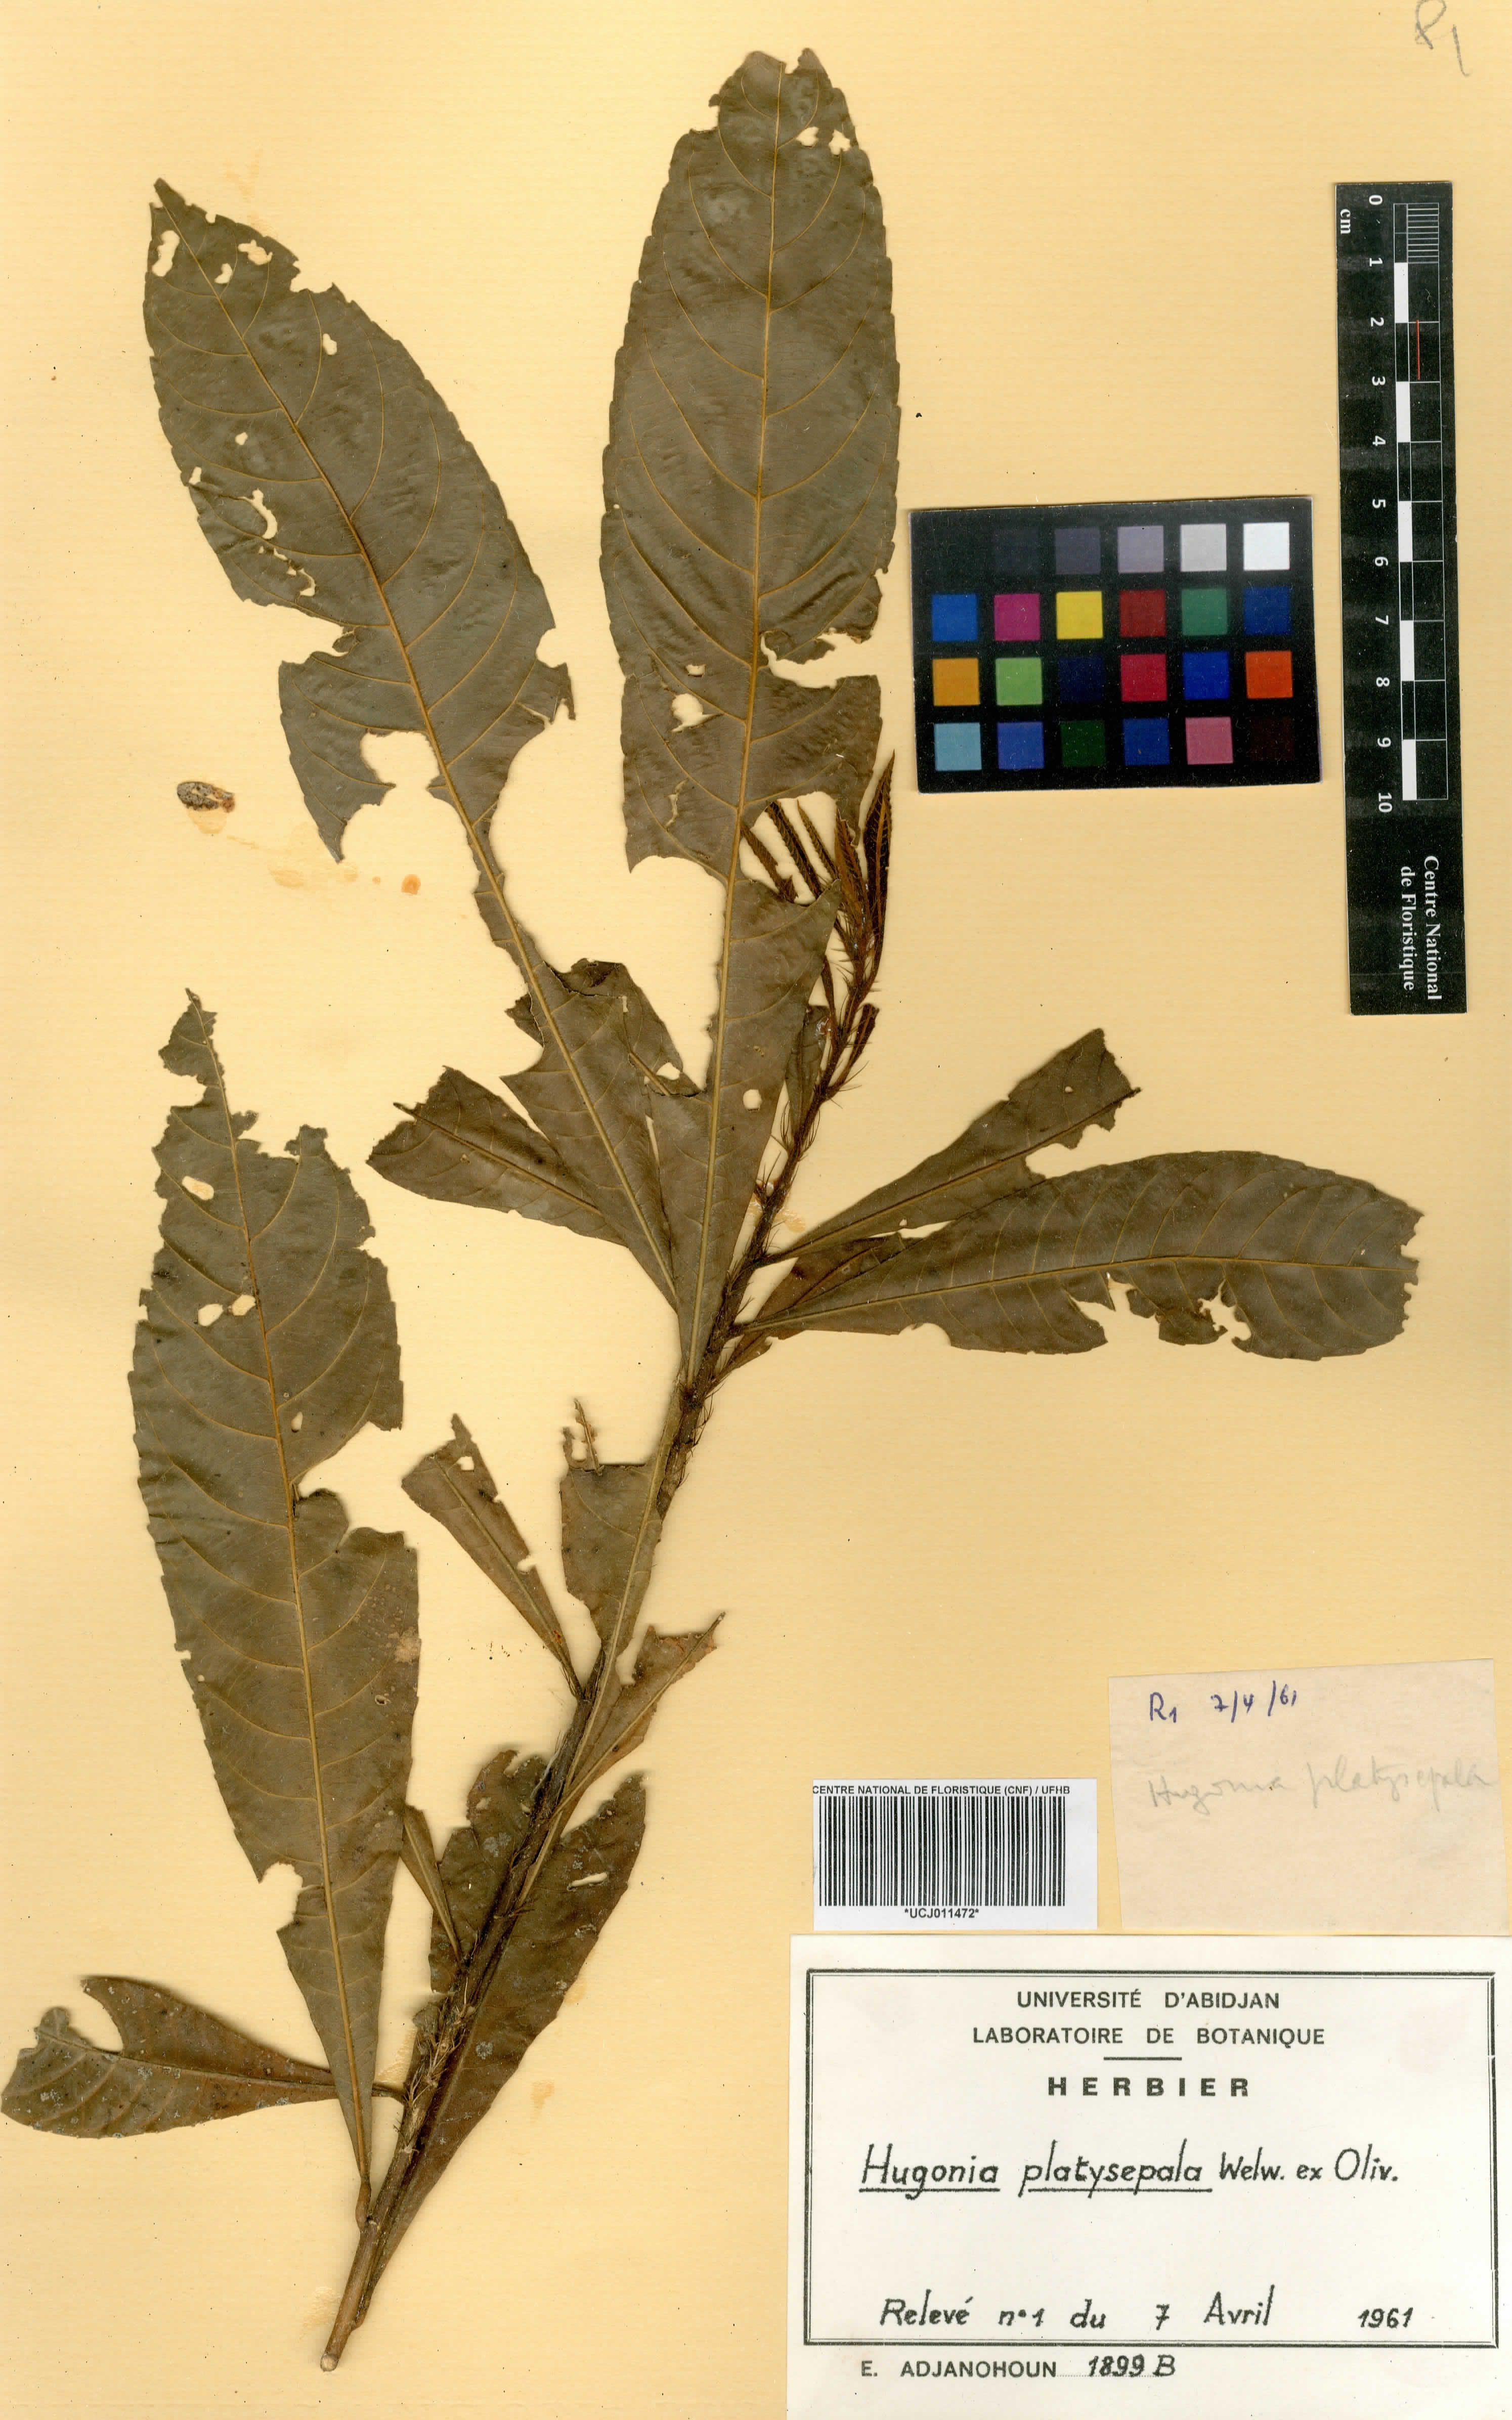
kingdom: Plantae
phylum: Tracheophyta
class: Magnoliopsida
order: Malpighiales
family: Linaceae
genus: Hugonia
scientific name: Hugonia platysepala
